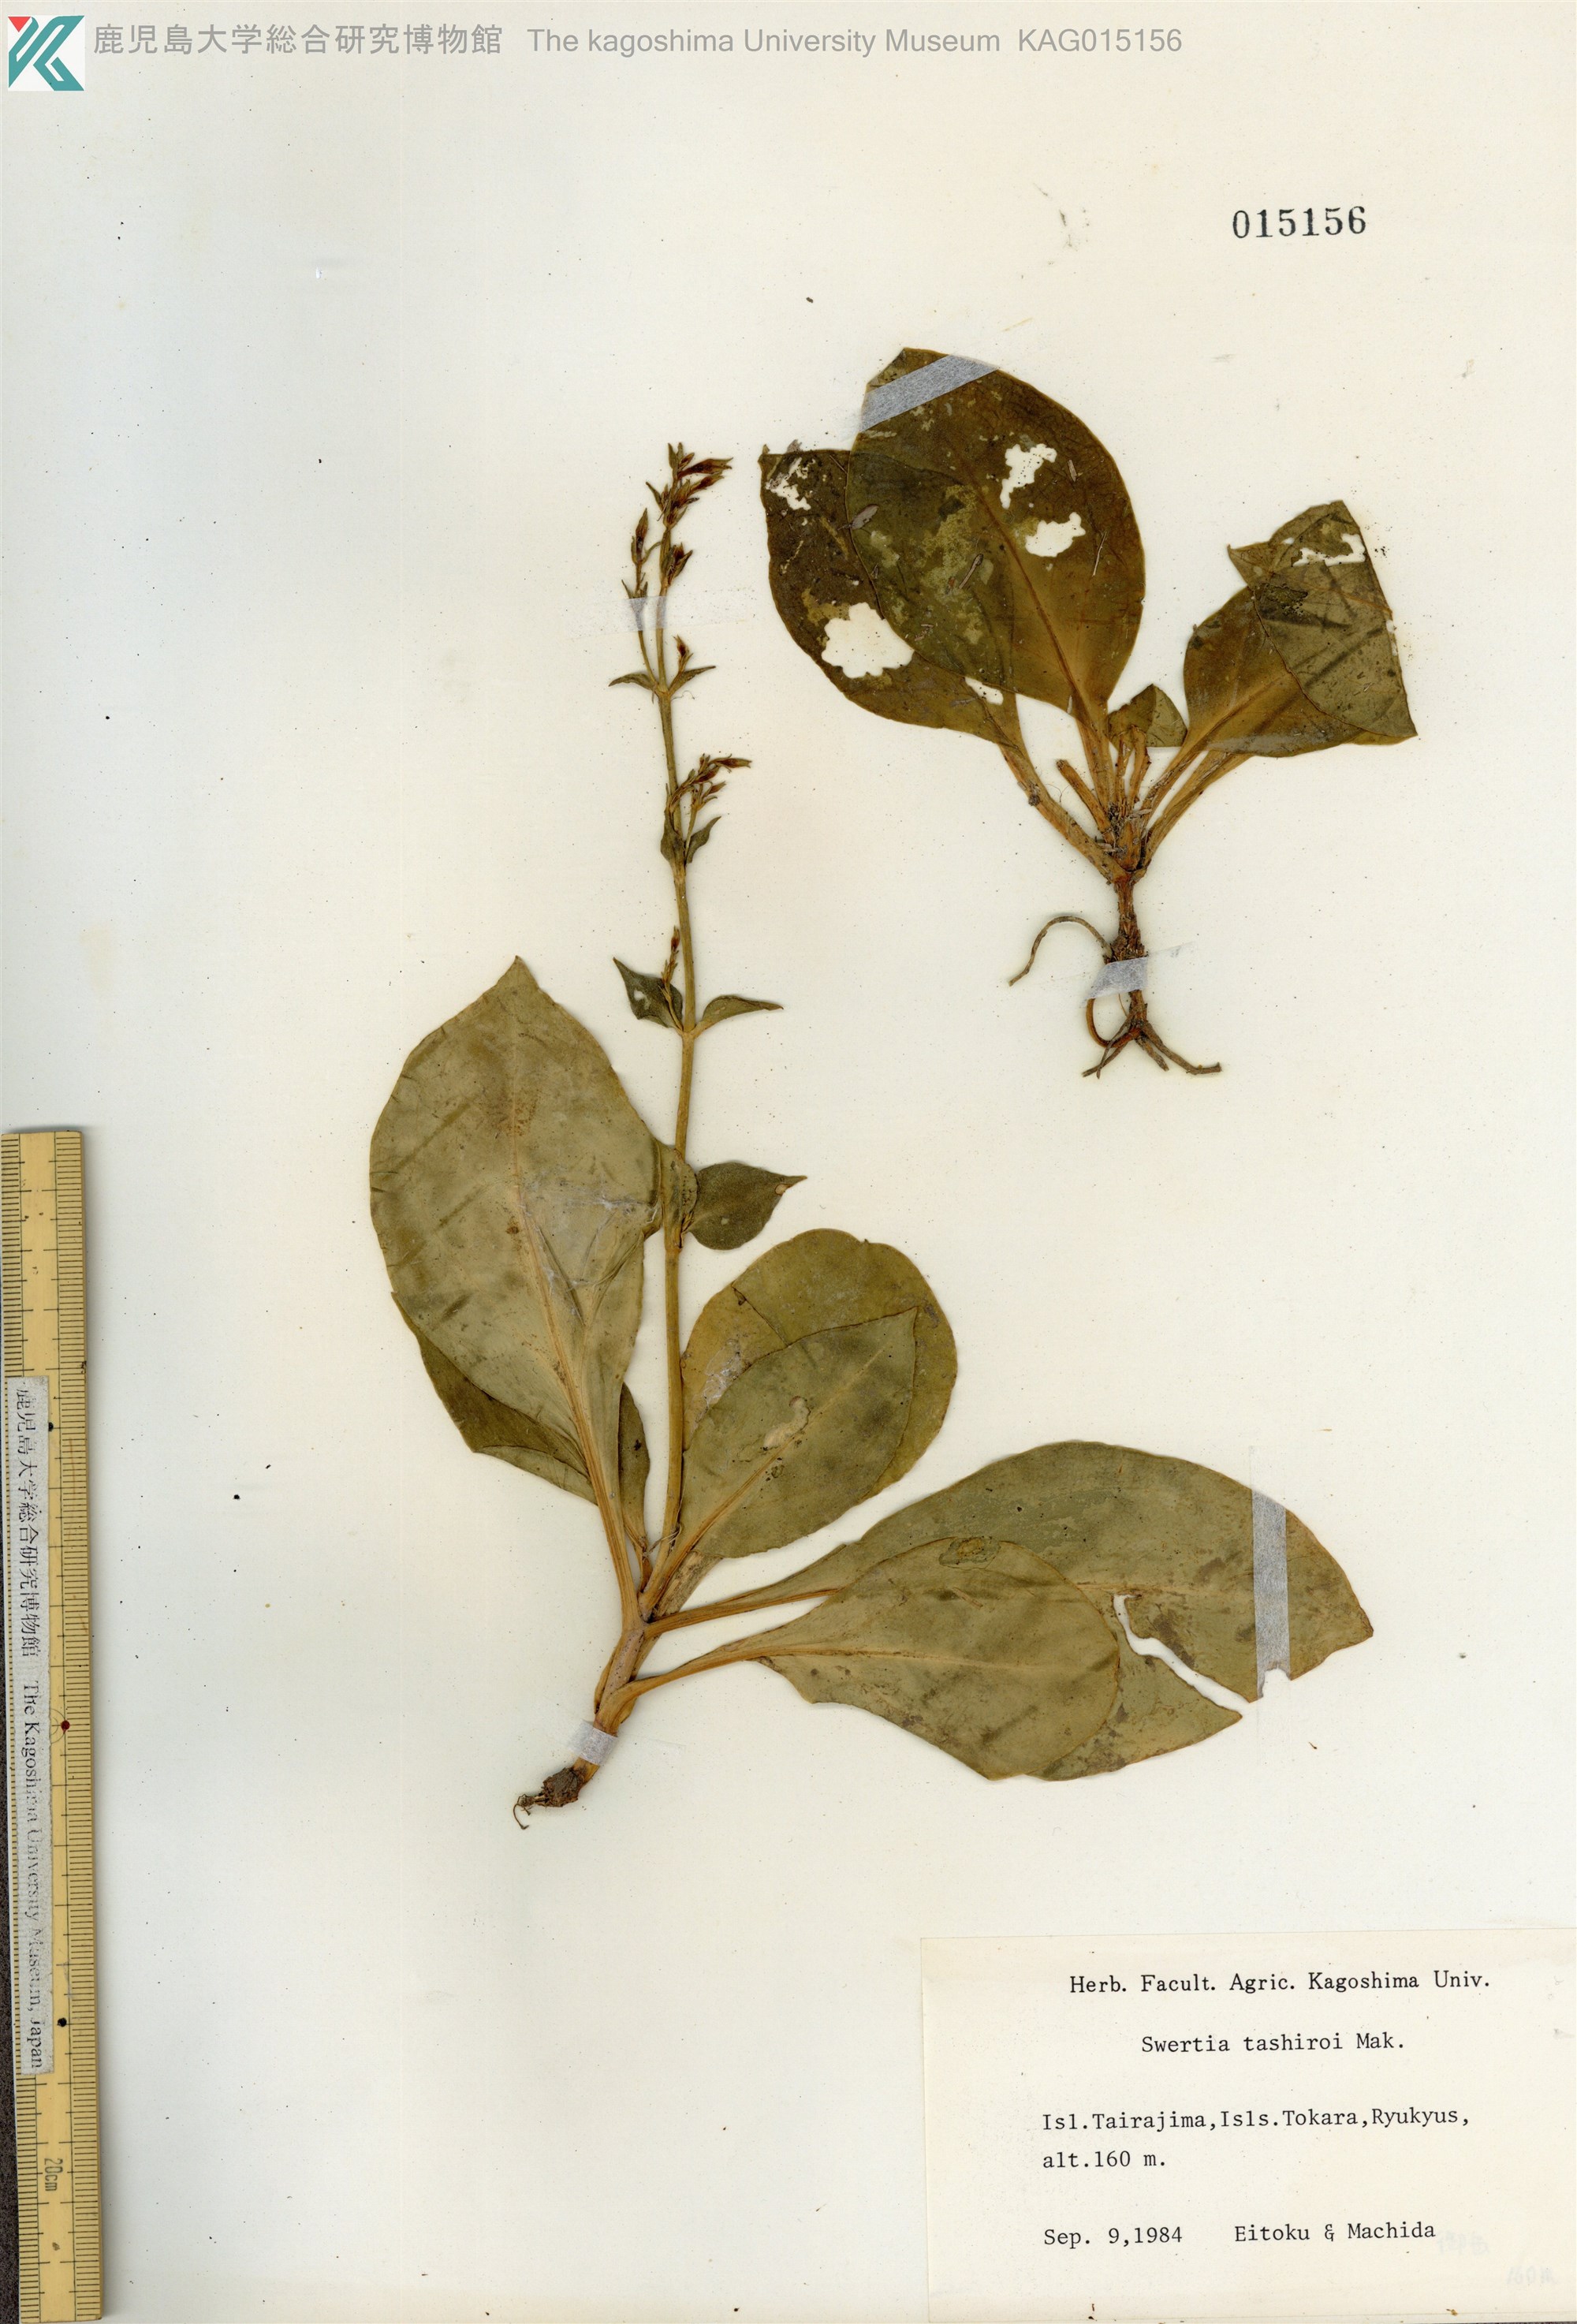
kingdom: Plantae
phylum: Tracheophyta
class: Magnoliopsida
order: Gentianales
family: Gentianaceae
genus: Swertia
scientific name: Swertia tashiroi
